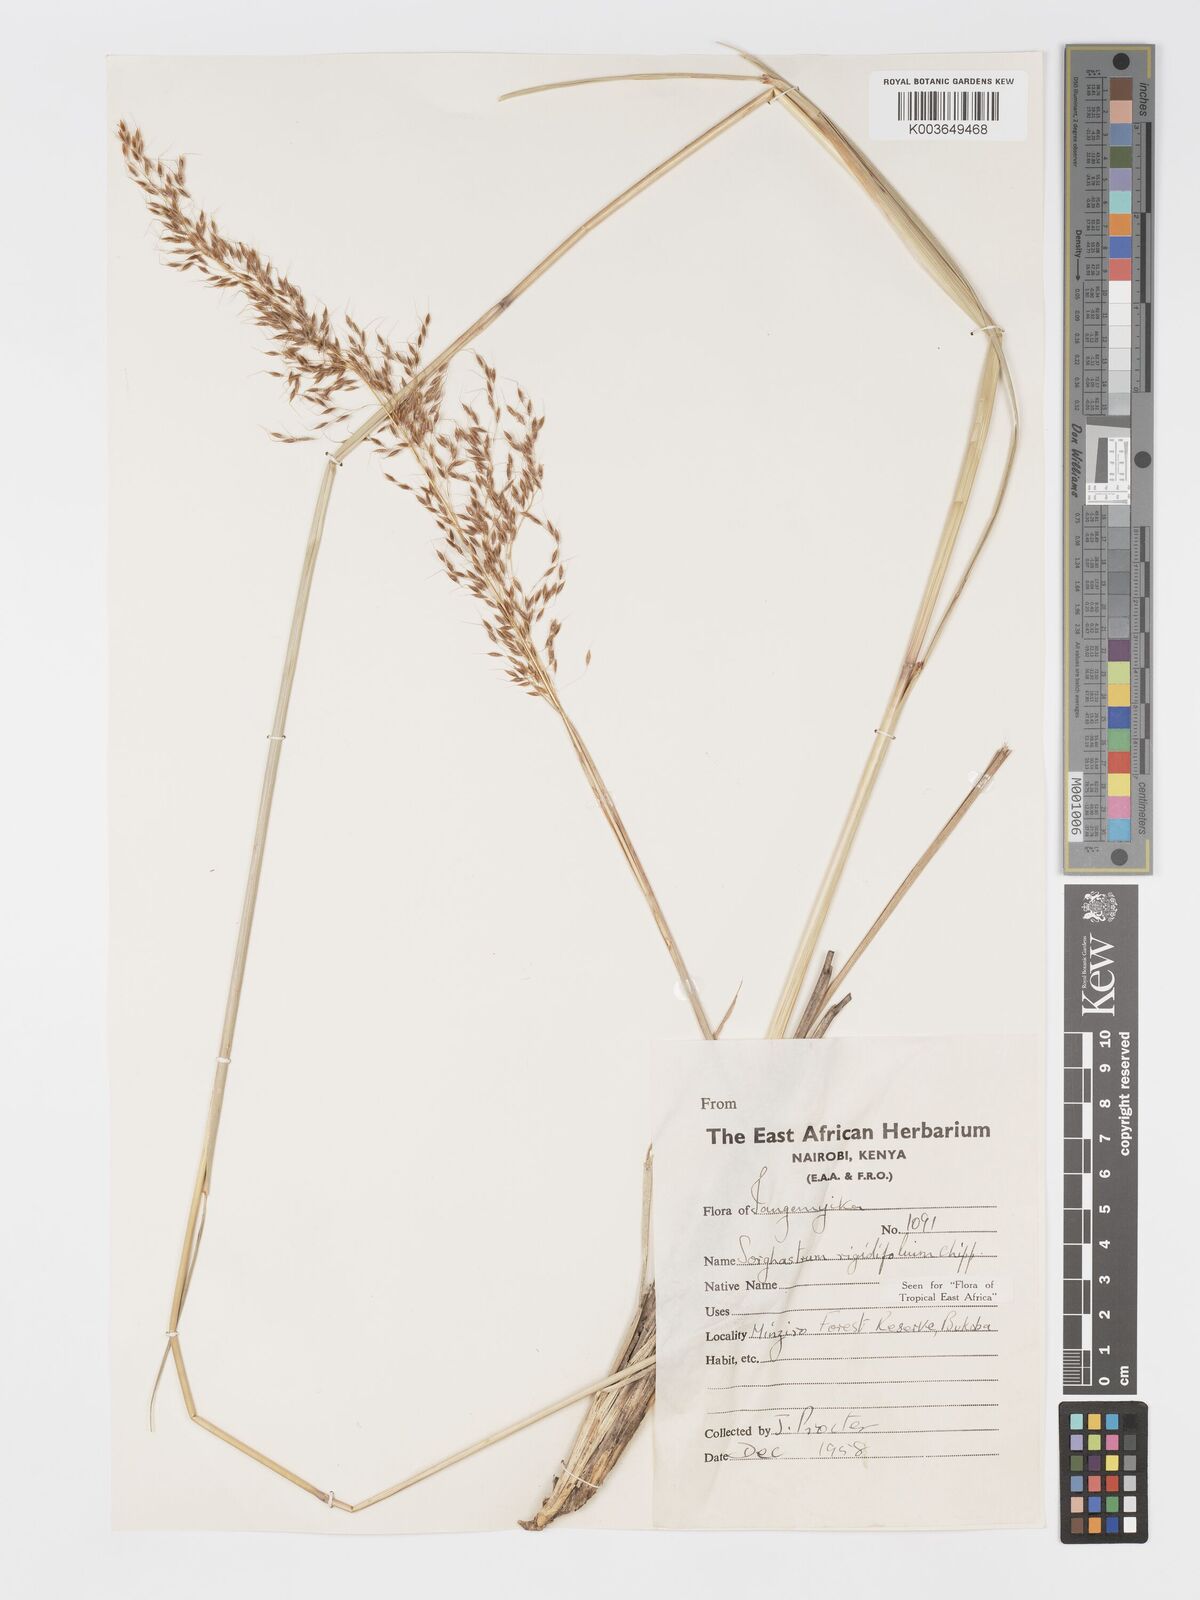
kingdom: Plantae
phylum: Tracheophyta
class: Liliopsida
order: Poales
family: Poaceae
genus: Sorghastrum
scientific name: Sorghastrum stipoides
